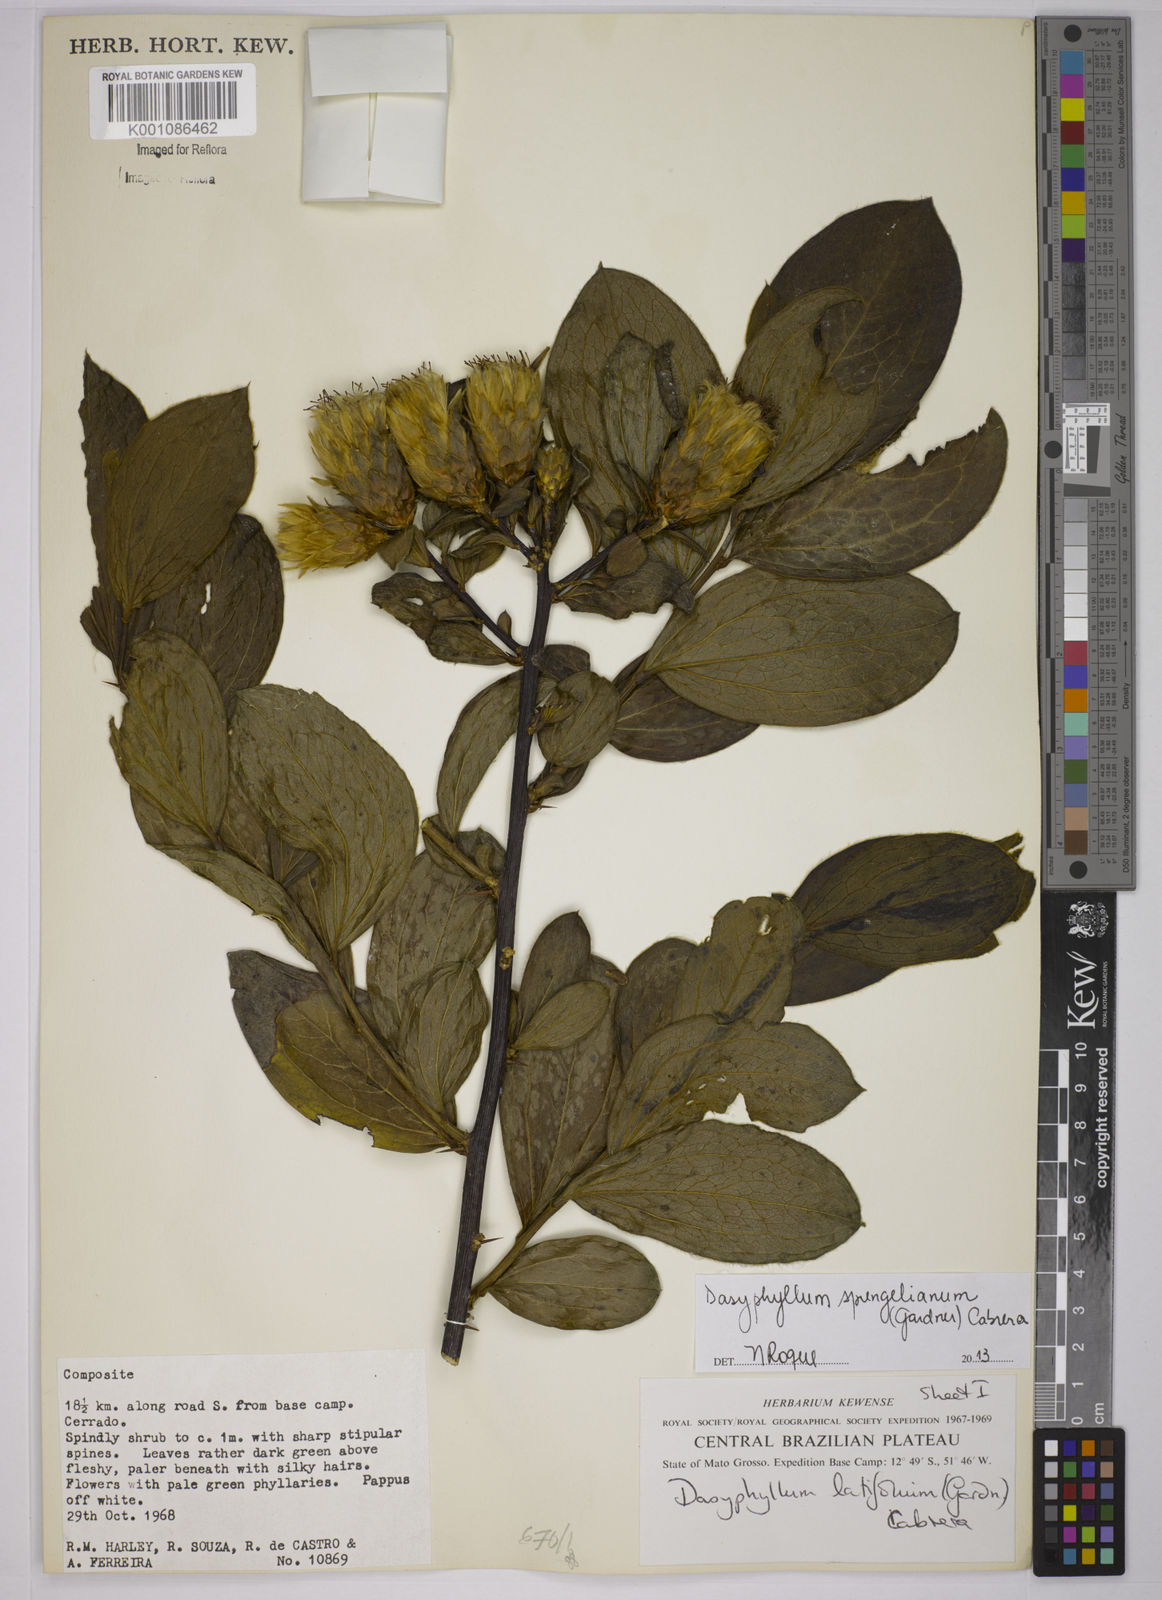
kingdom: Plantae
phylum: Tracheophyta
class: Magnoliopsida
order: Asterales
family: Asteraceae
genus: Dasyphyllum
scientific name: Dasyphyllum sprengelianum
